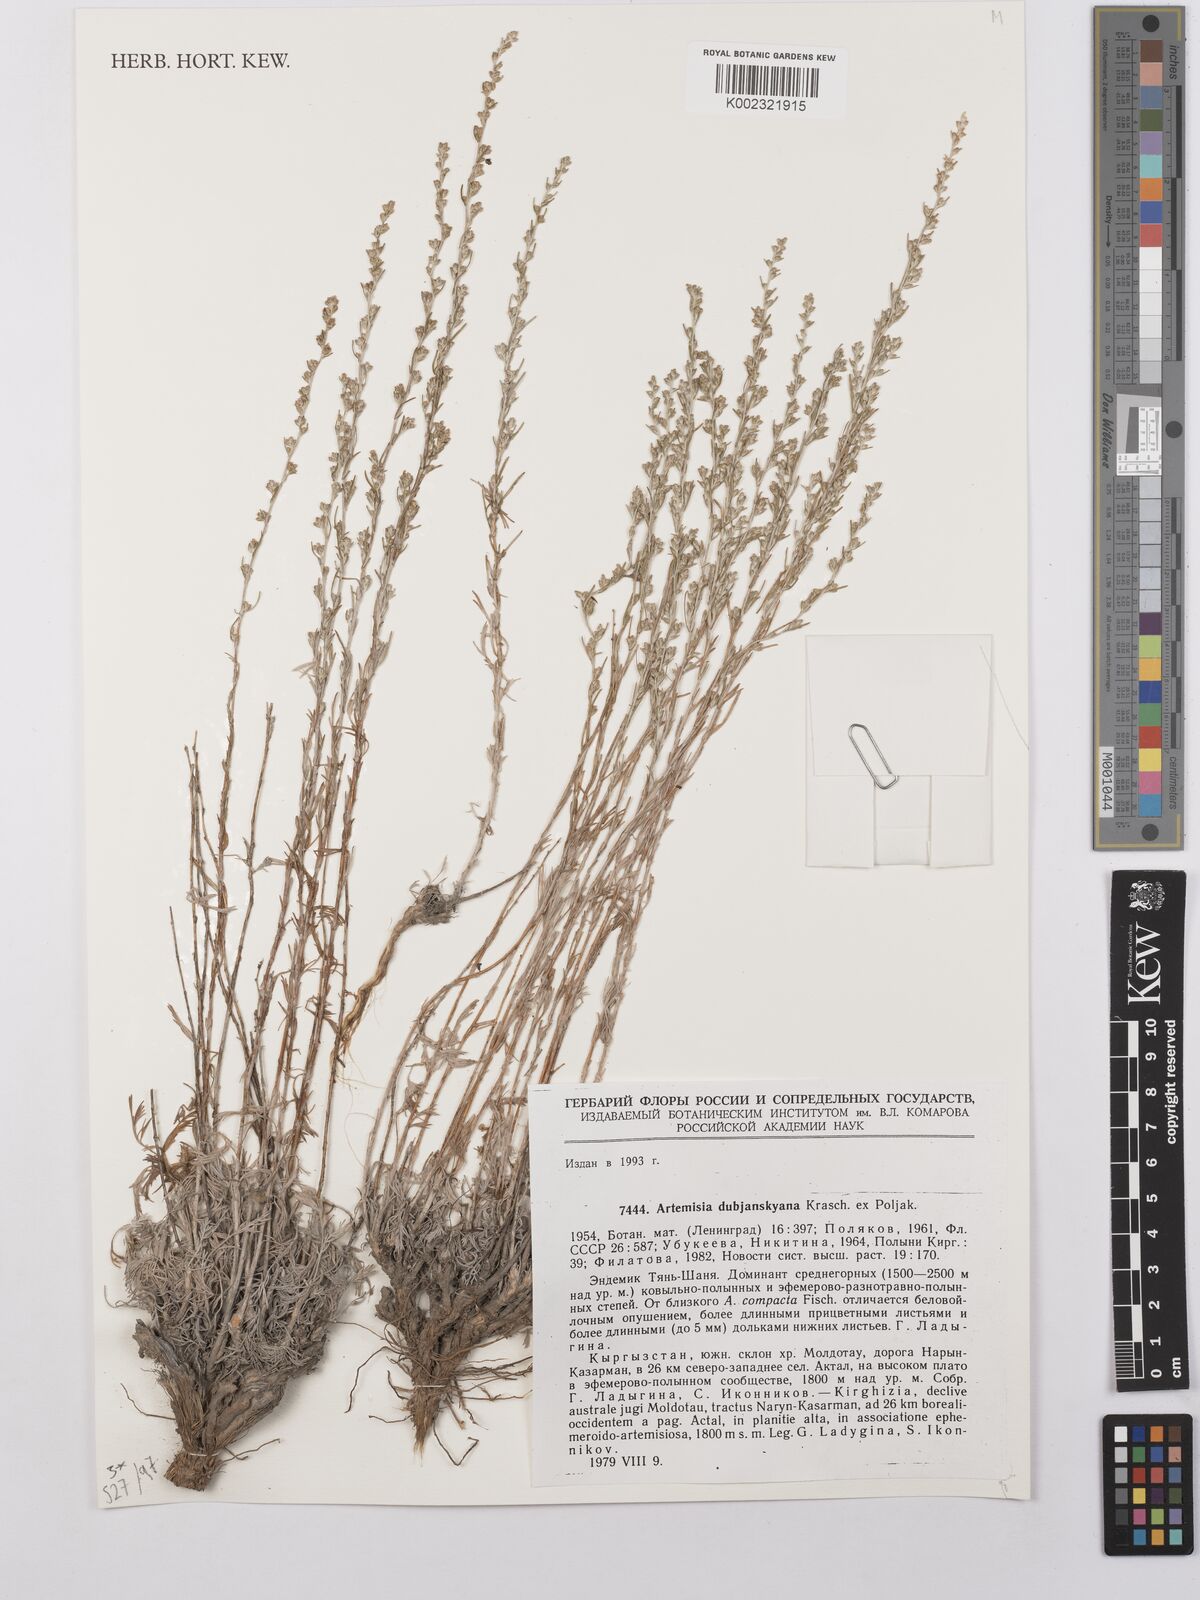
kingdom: Plantae
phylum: Tracheophyta
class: Magnoliopsida
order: Asterales
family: Asteraceae
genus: Artemisia
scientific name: Artemisia dubjanskyana
